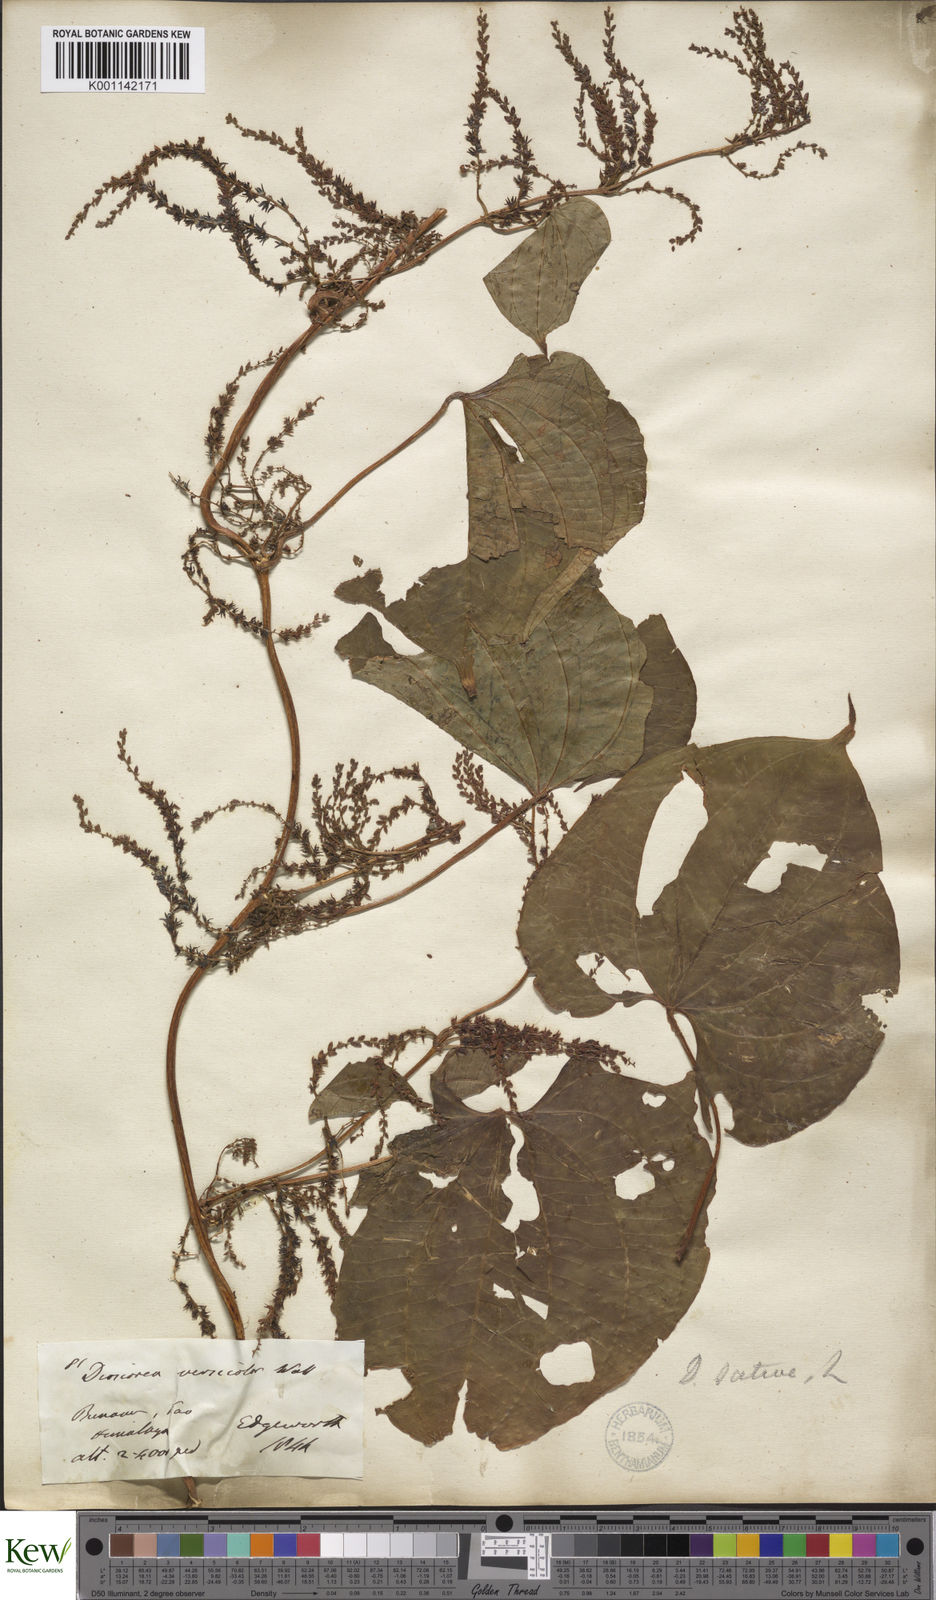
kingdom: Plantae
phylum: Tracheophyta
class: Liliopsida
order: Dioscoreales
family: Dioscoreaceae
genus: Dioscorea
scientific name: Dioscorea bulbifera
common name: Air yam
